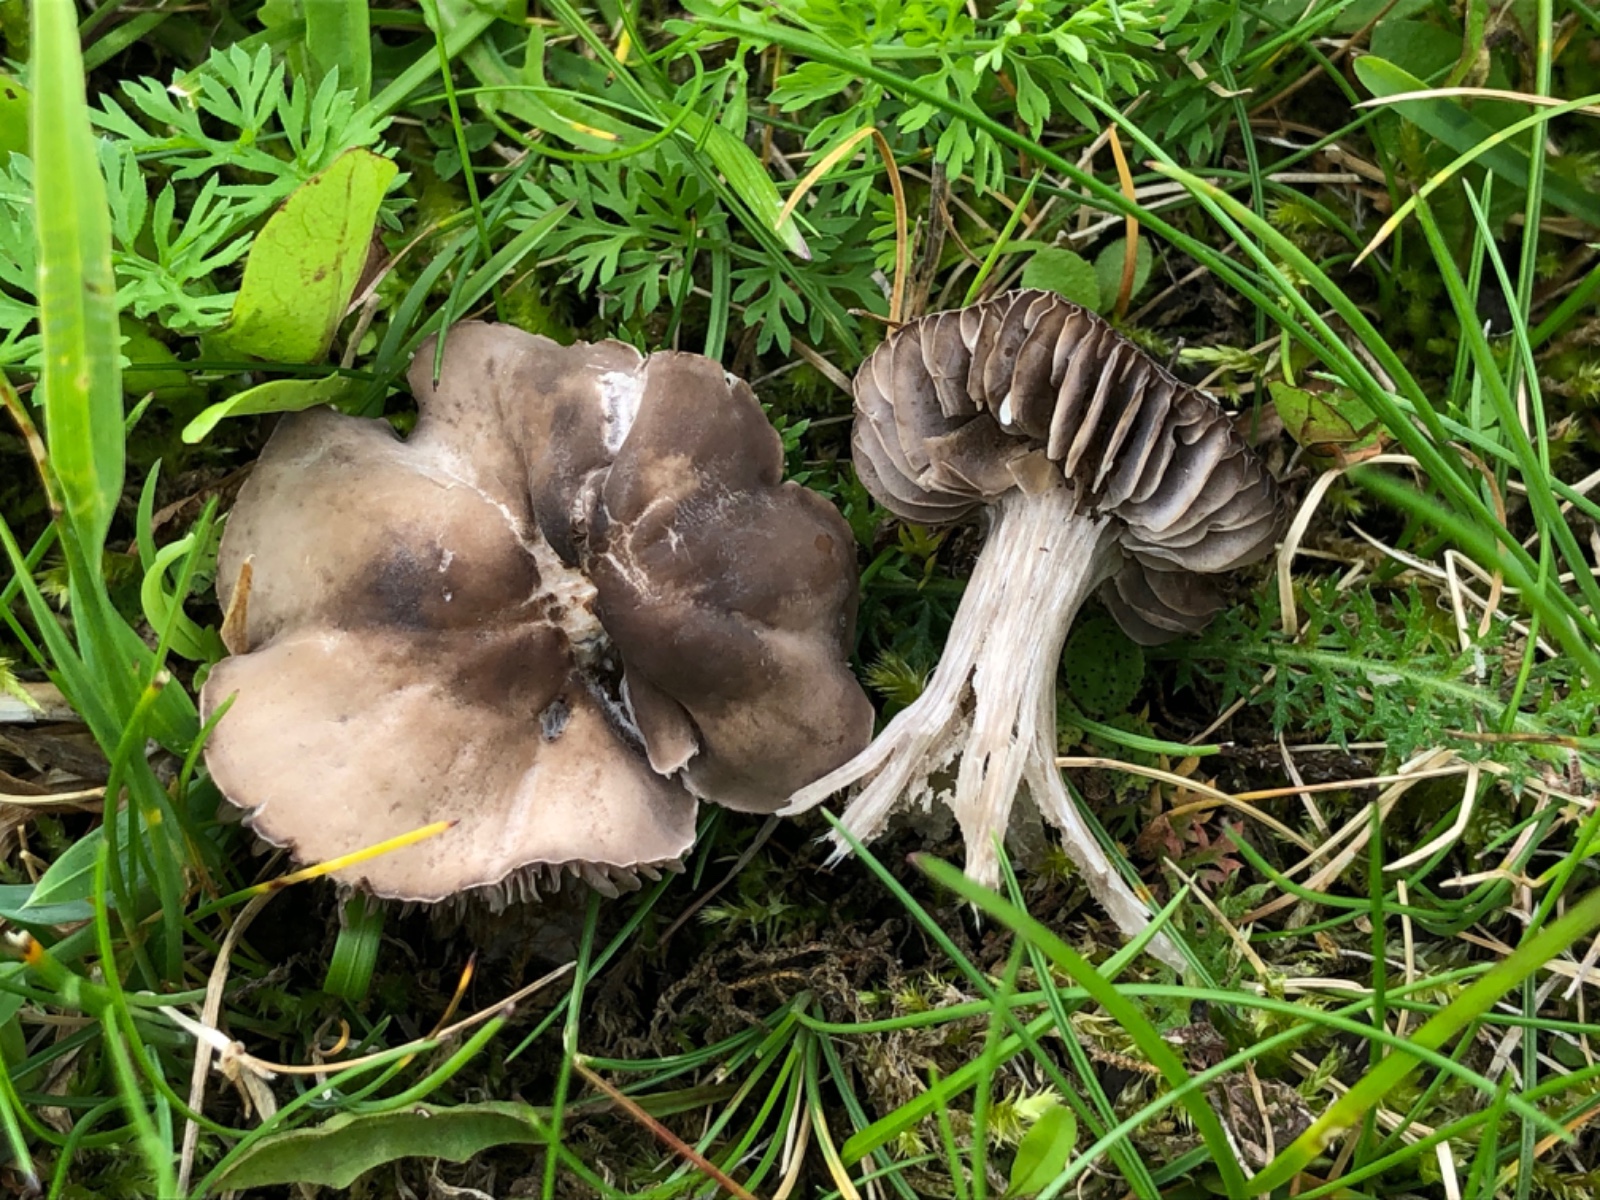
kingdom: Fungi
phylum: Basidiomycota
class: Agaricomycetes
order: Agaricales
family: Tricholomataceae
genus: Dermoloma
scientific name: Dermoloma cuneifolium
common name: eng-nonnehat
